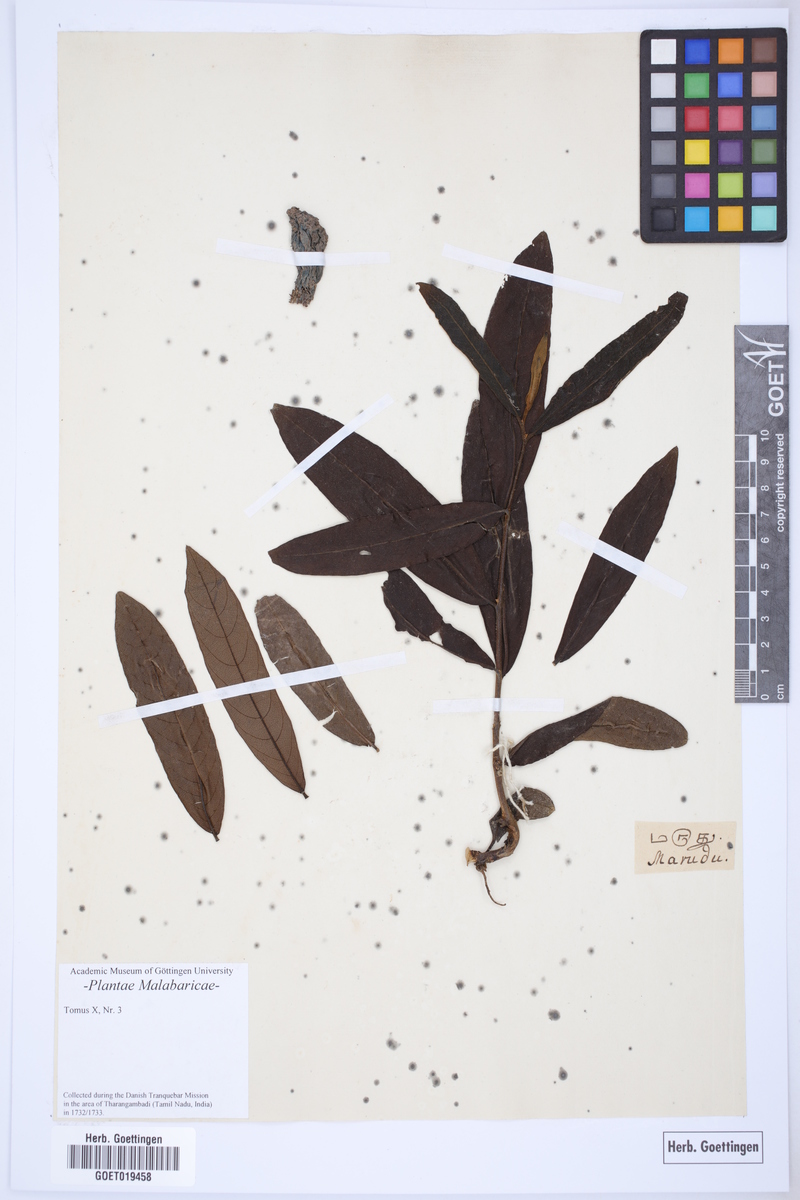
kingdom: Plantae
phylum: Tracheophyta
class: Magnoliopsida
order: Myrtales
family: Combretaceae
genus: Terminalia
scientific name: Terminalia
